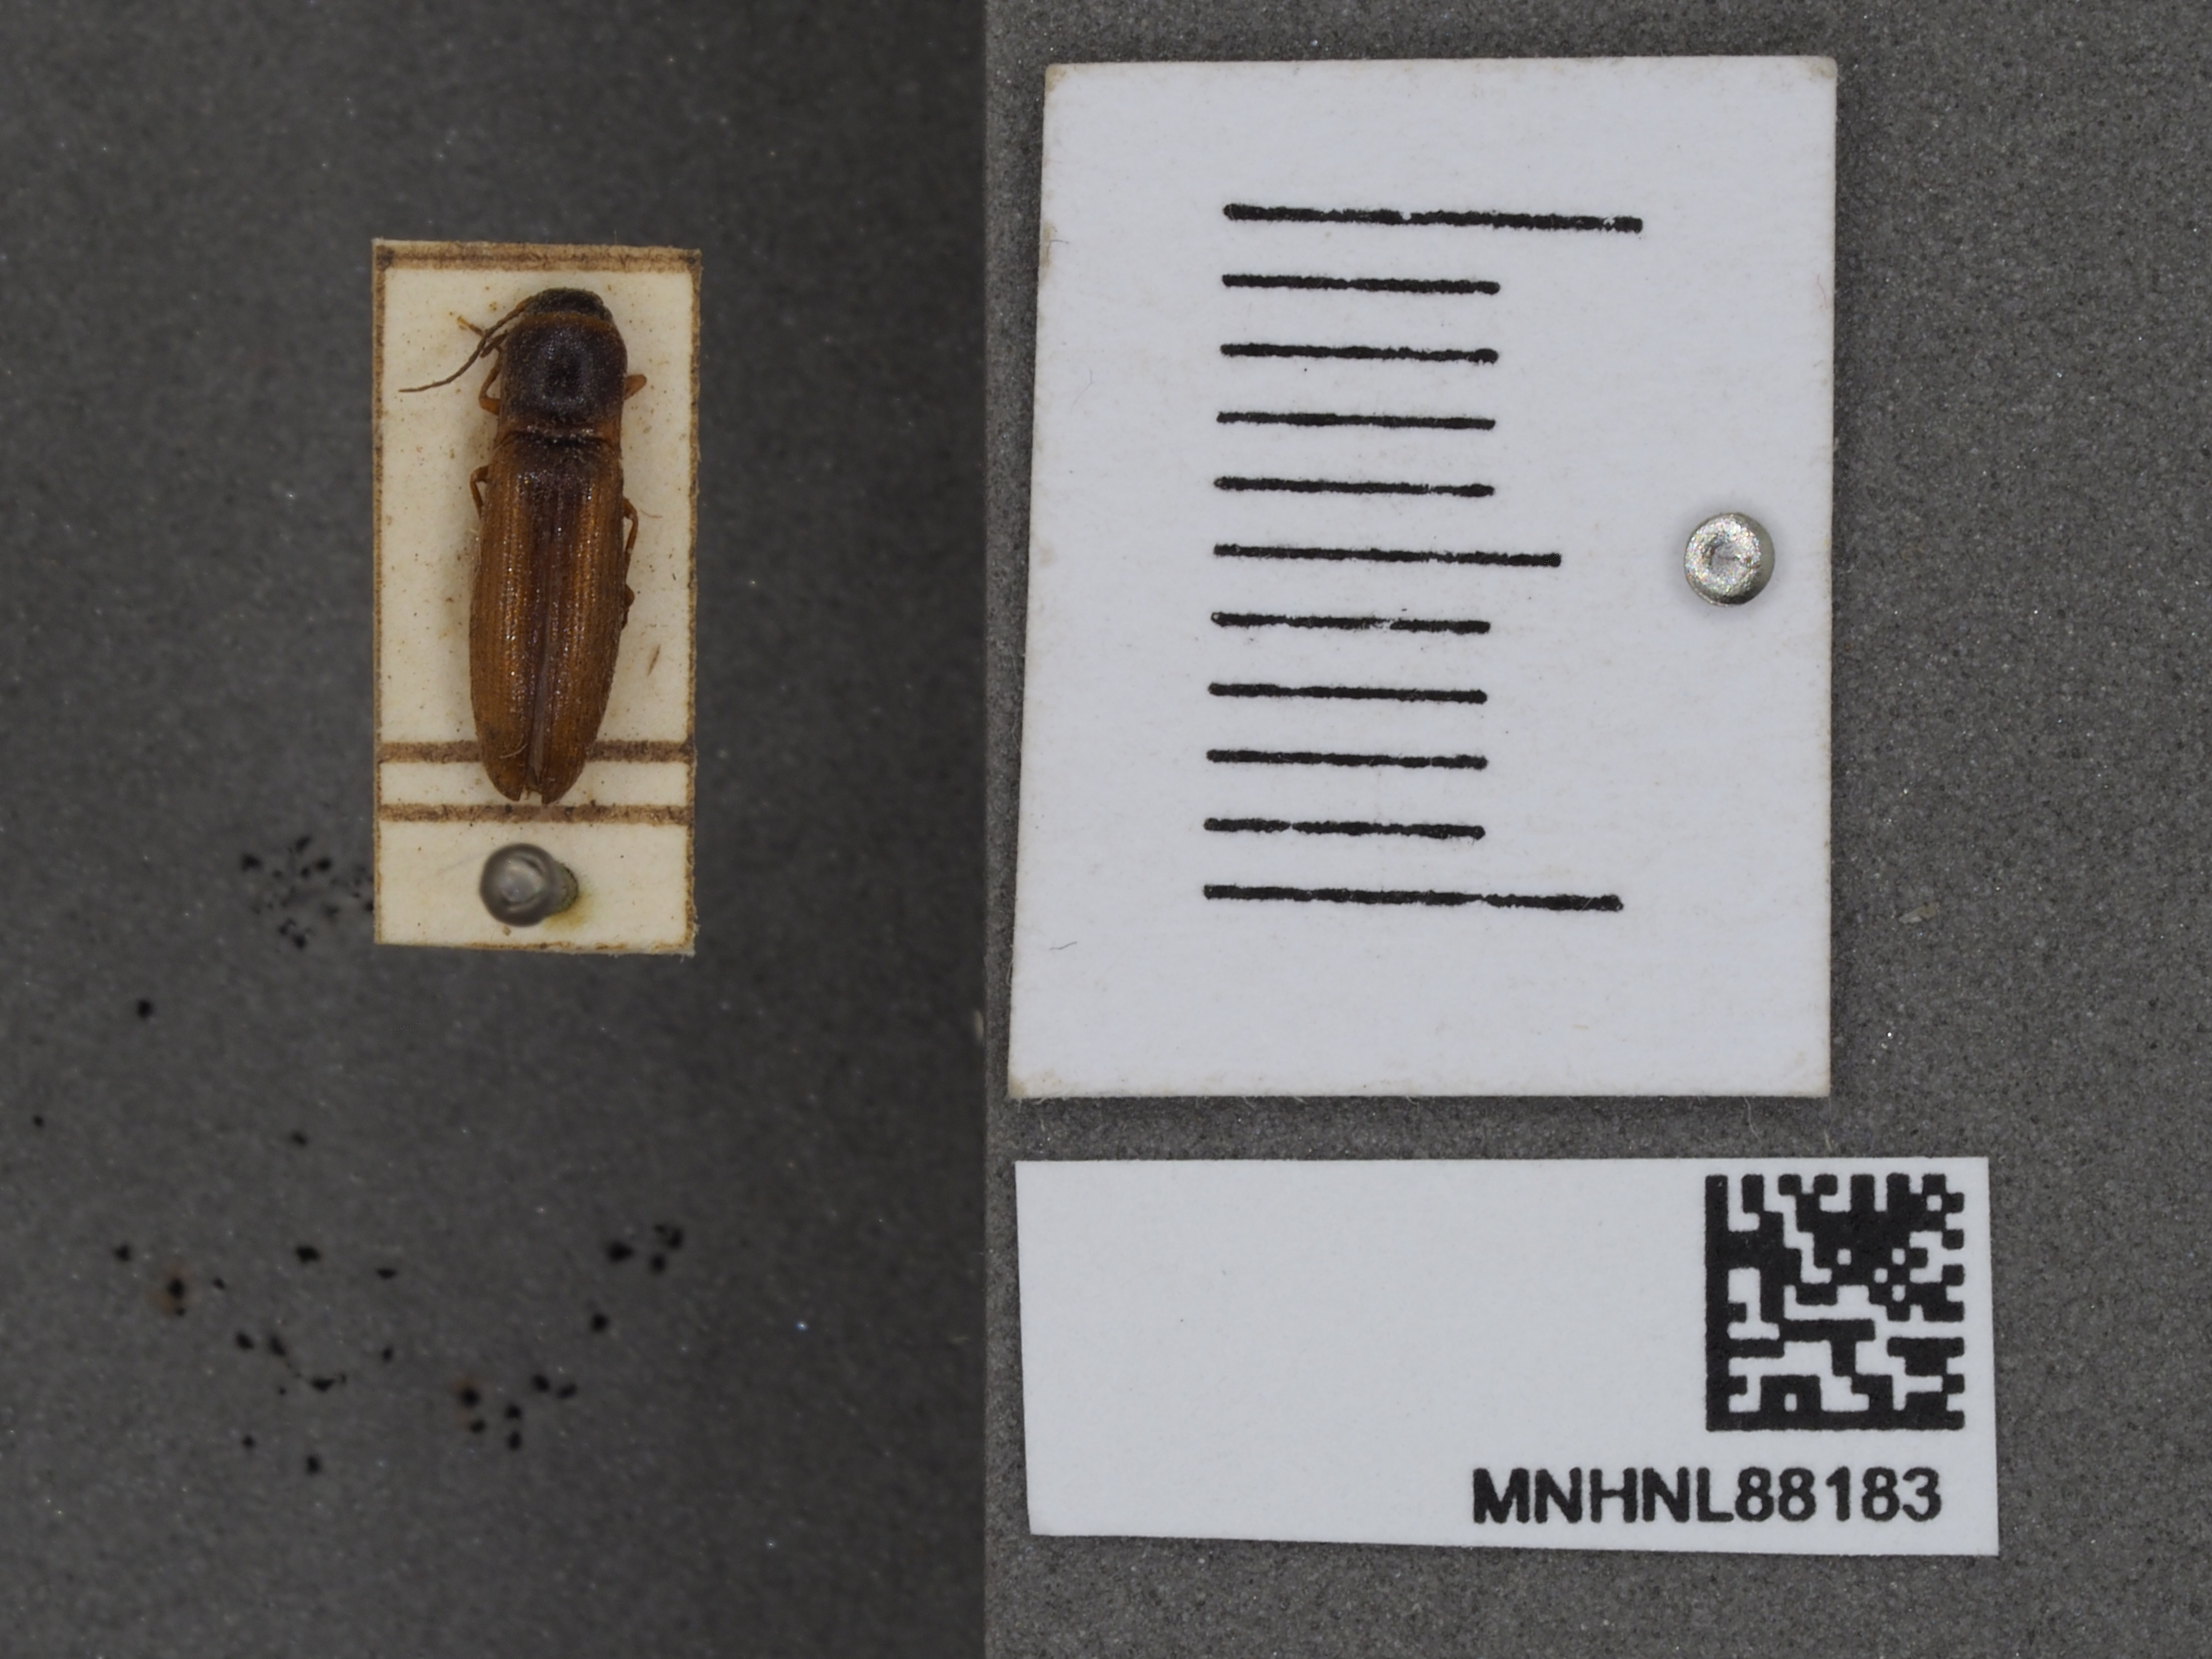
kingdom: Animalia
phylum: Arthropoda
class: Insecta
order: Coleoptera
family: Elateridae
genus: Dalopius
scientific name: Dalopius marginatus
